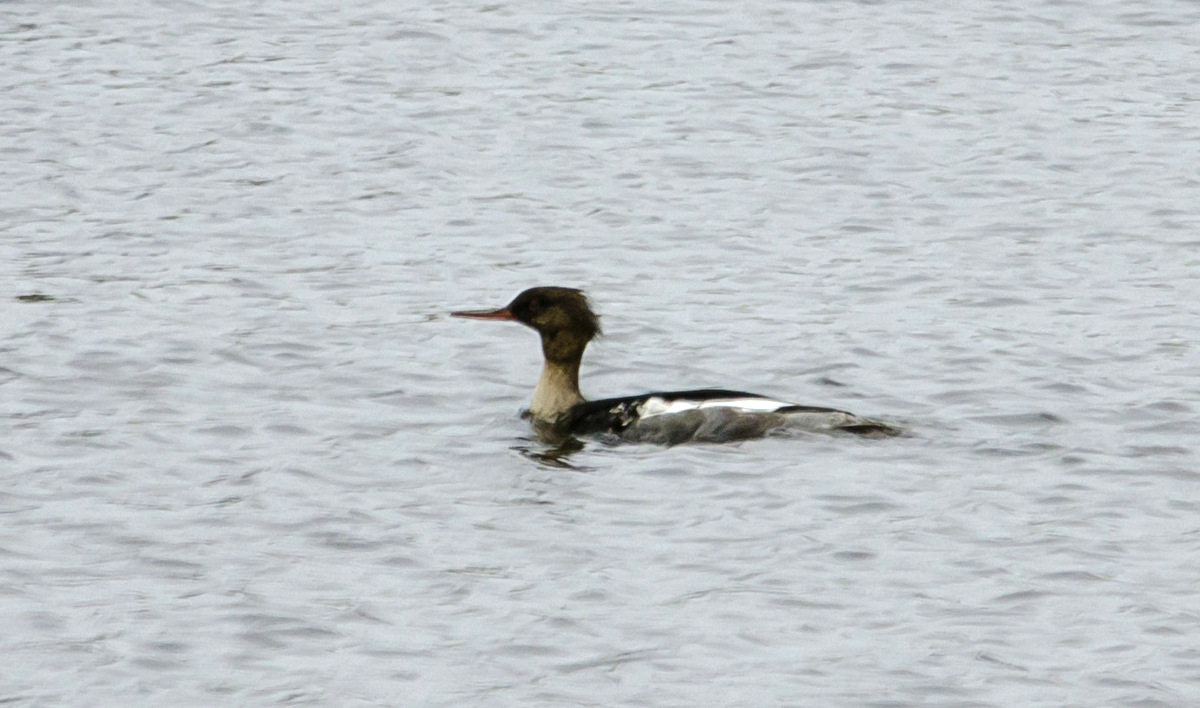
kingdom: Animalia
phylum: Chordata
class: Aves
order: Anseriformes
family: Anatidae
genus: Mergus
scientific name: Mergus serrator
